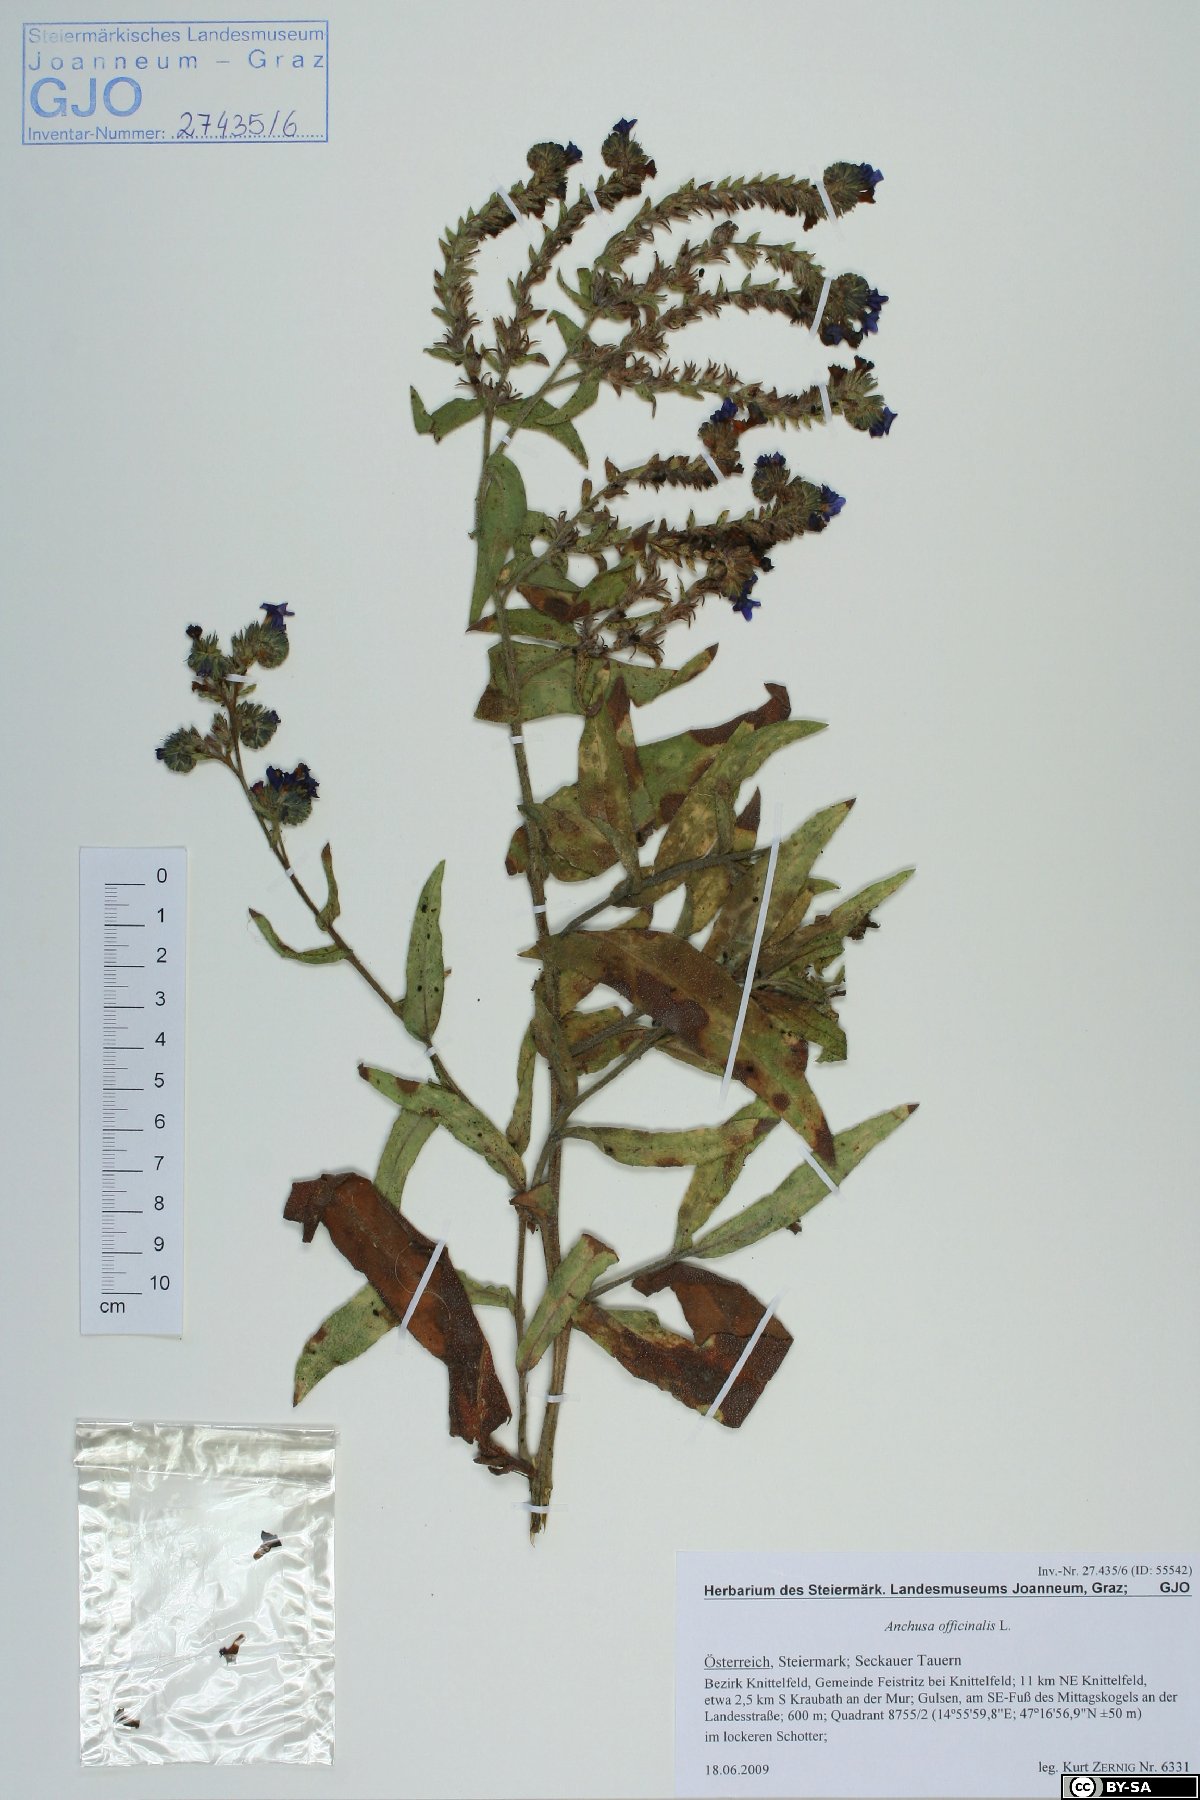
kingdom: Plantae
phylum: Tracheophyta
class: Magnoliopsida
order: Boraginales
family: Boraginaceae
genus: Anchusa
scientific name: Anchusa officinalis
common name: Alkanet
